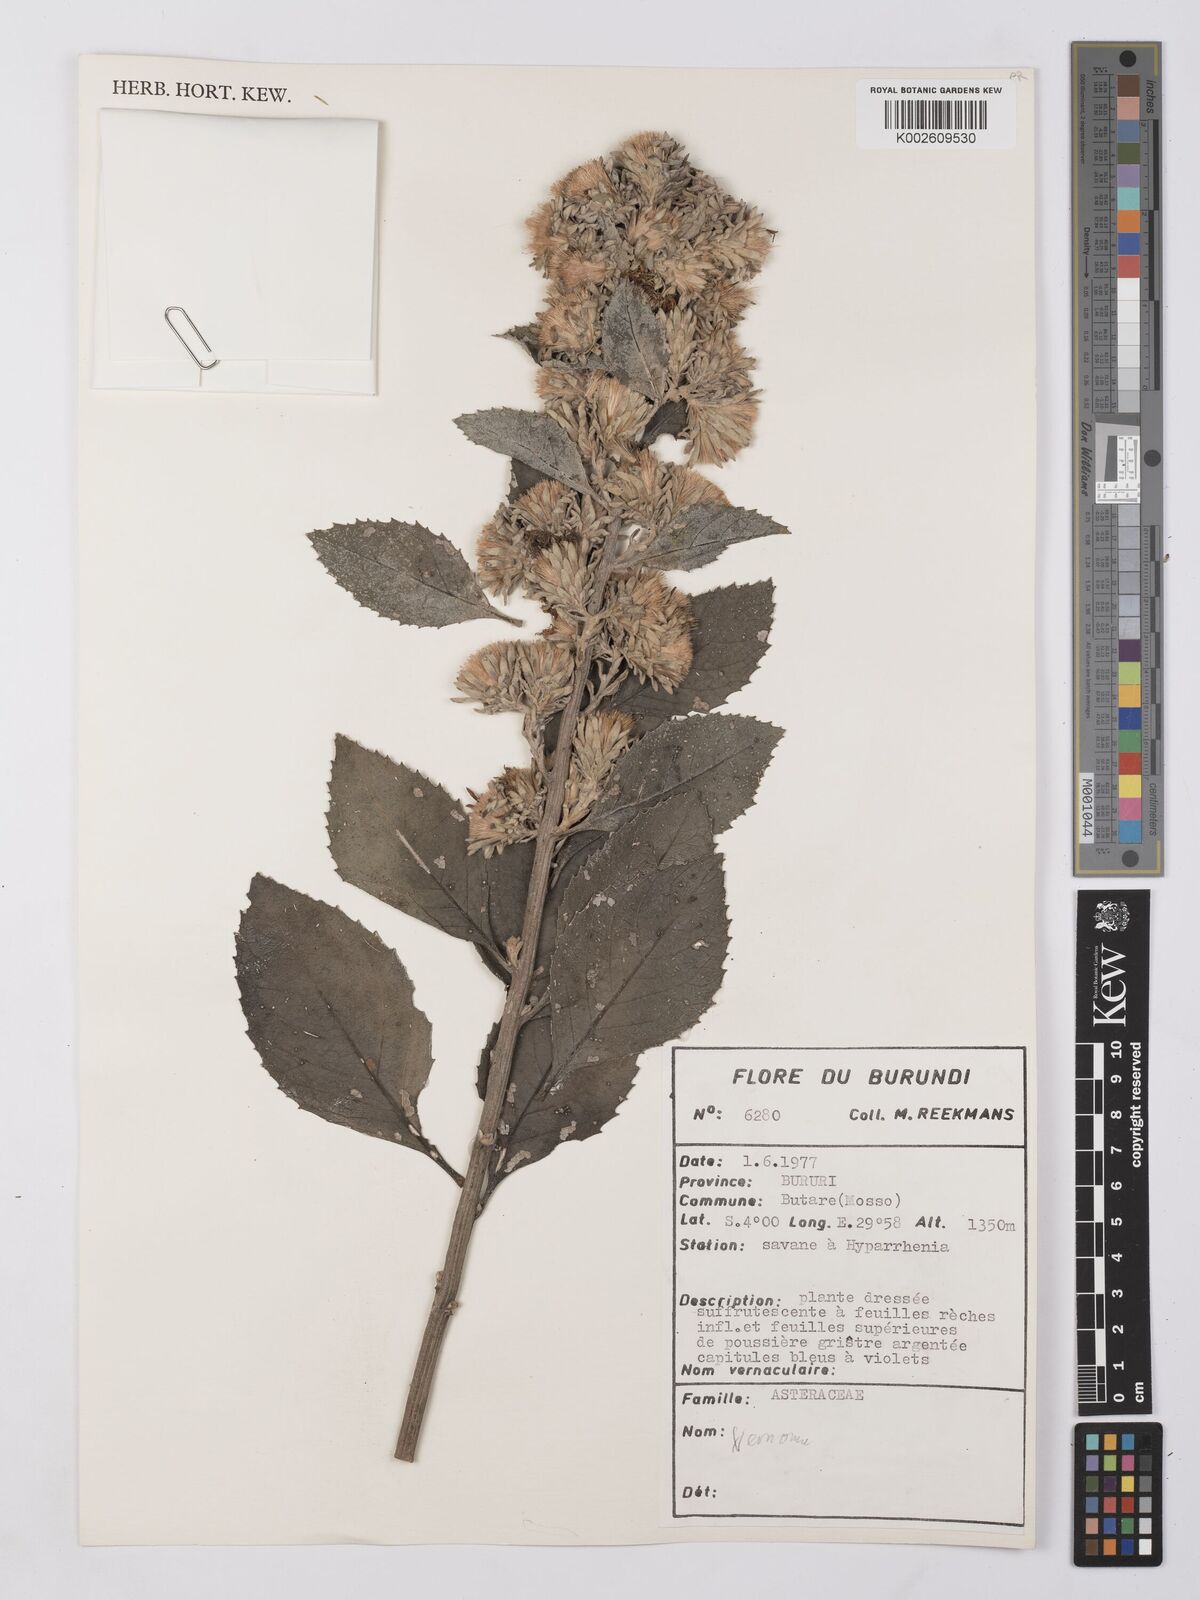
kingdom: Plantae
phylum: Tracheophyta
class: Magnoliopsida
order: Asterales
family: Asteraceae
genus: Vernonia
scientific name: Vernonia
